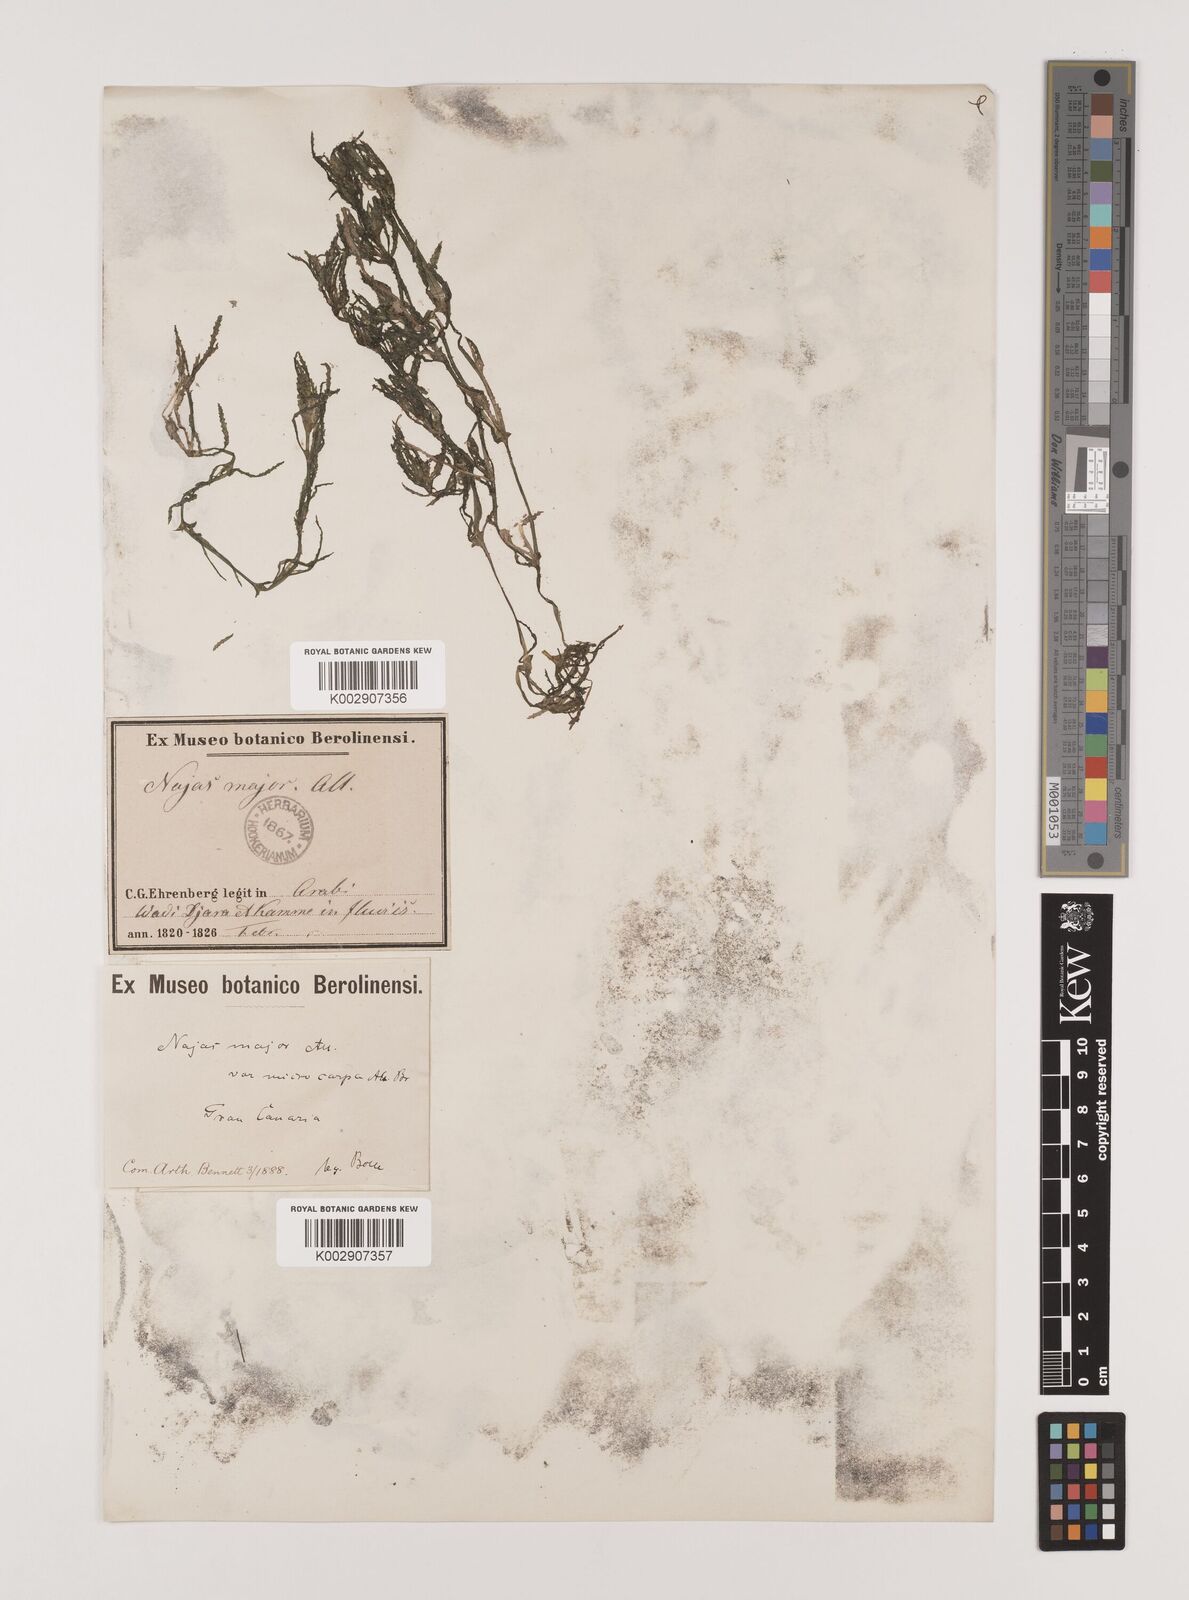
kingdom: Plantae
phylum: Tracheophyta
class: Liliopsida
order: Alismatales
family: Hydrocharitaceae
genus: Najas
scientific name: Najas marina
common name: Holly-leaved naiad
